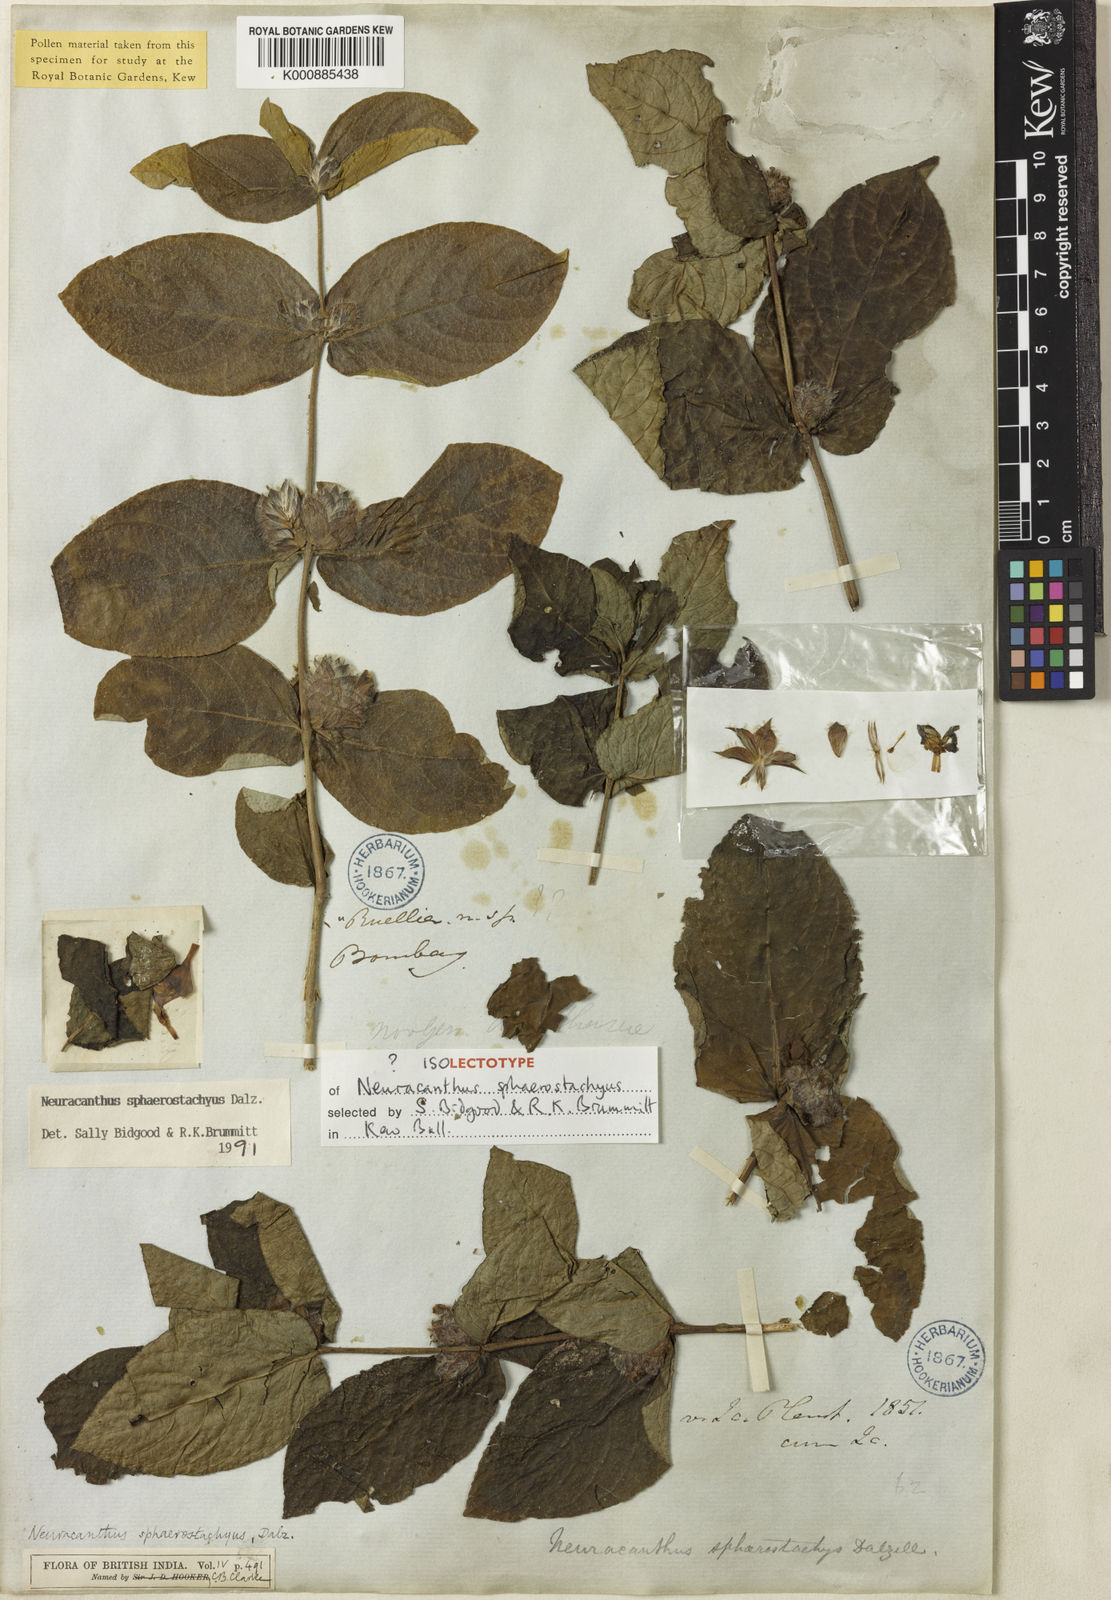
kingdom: Plantae
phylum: Tracheophyta
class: Magnoliopsida
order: Lamiales
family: Acanthaceae
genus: Neuracanthus
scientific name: Neuracanthus
